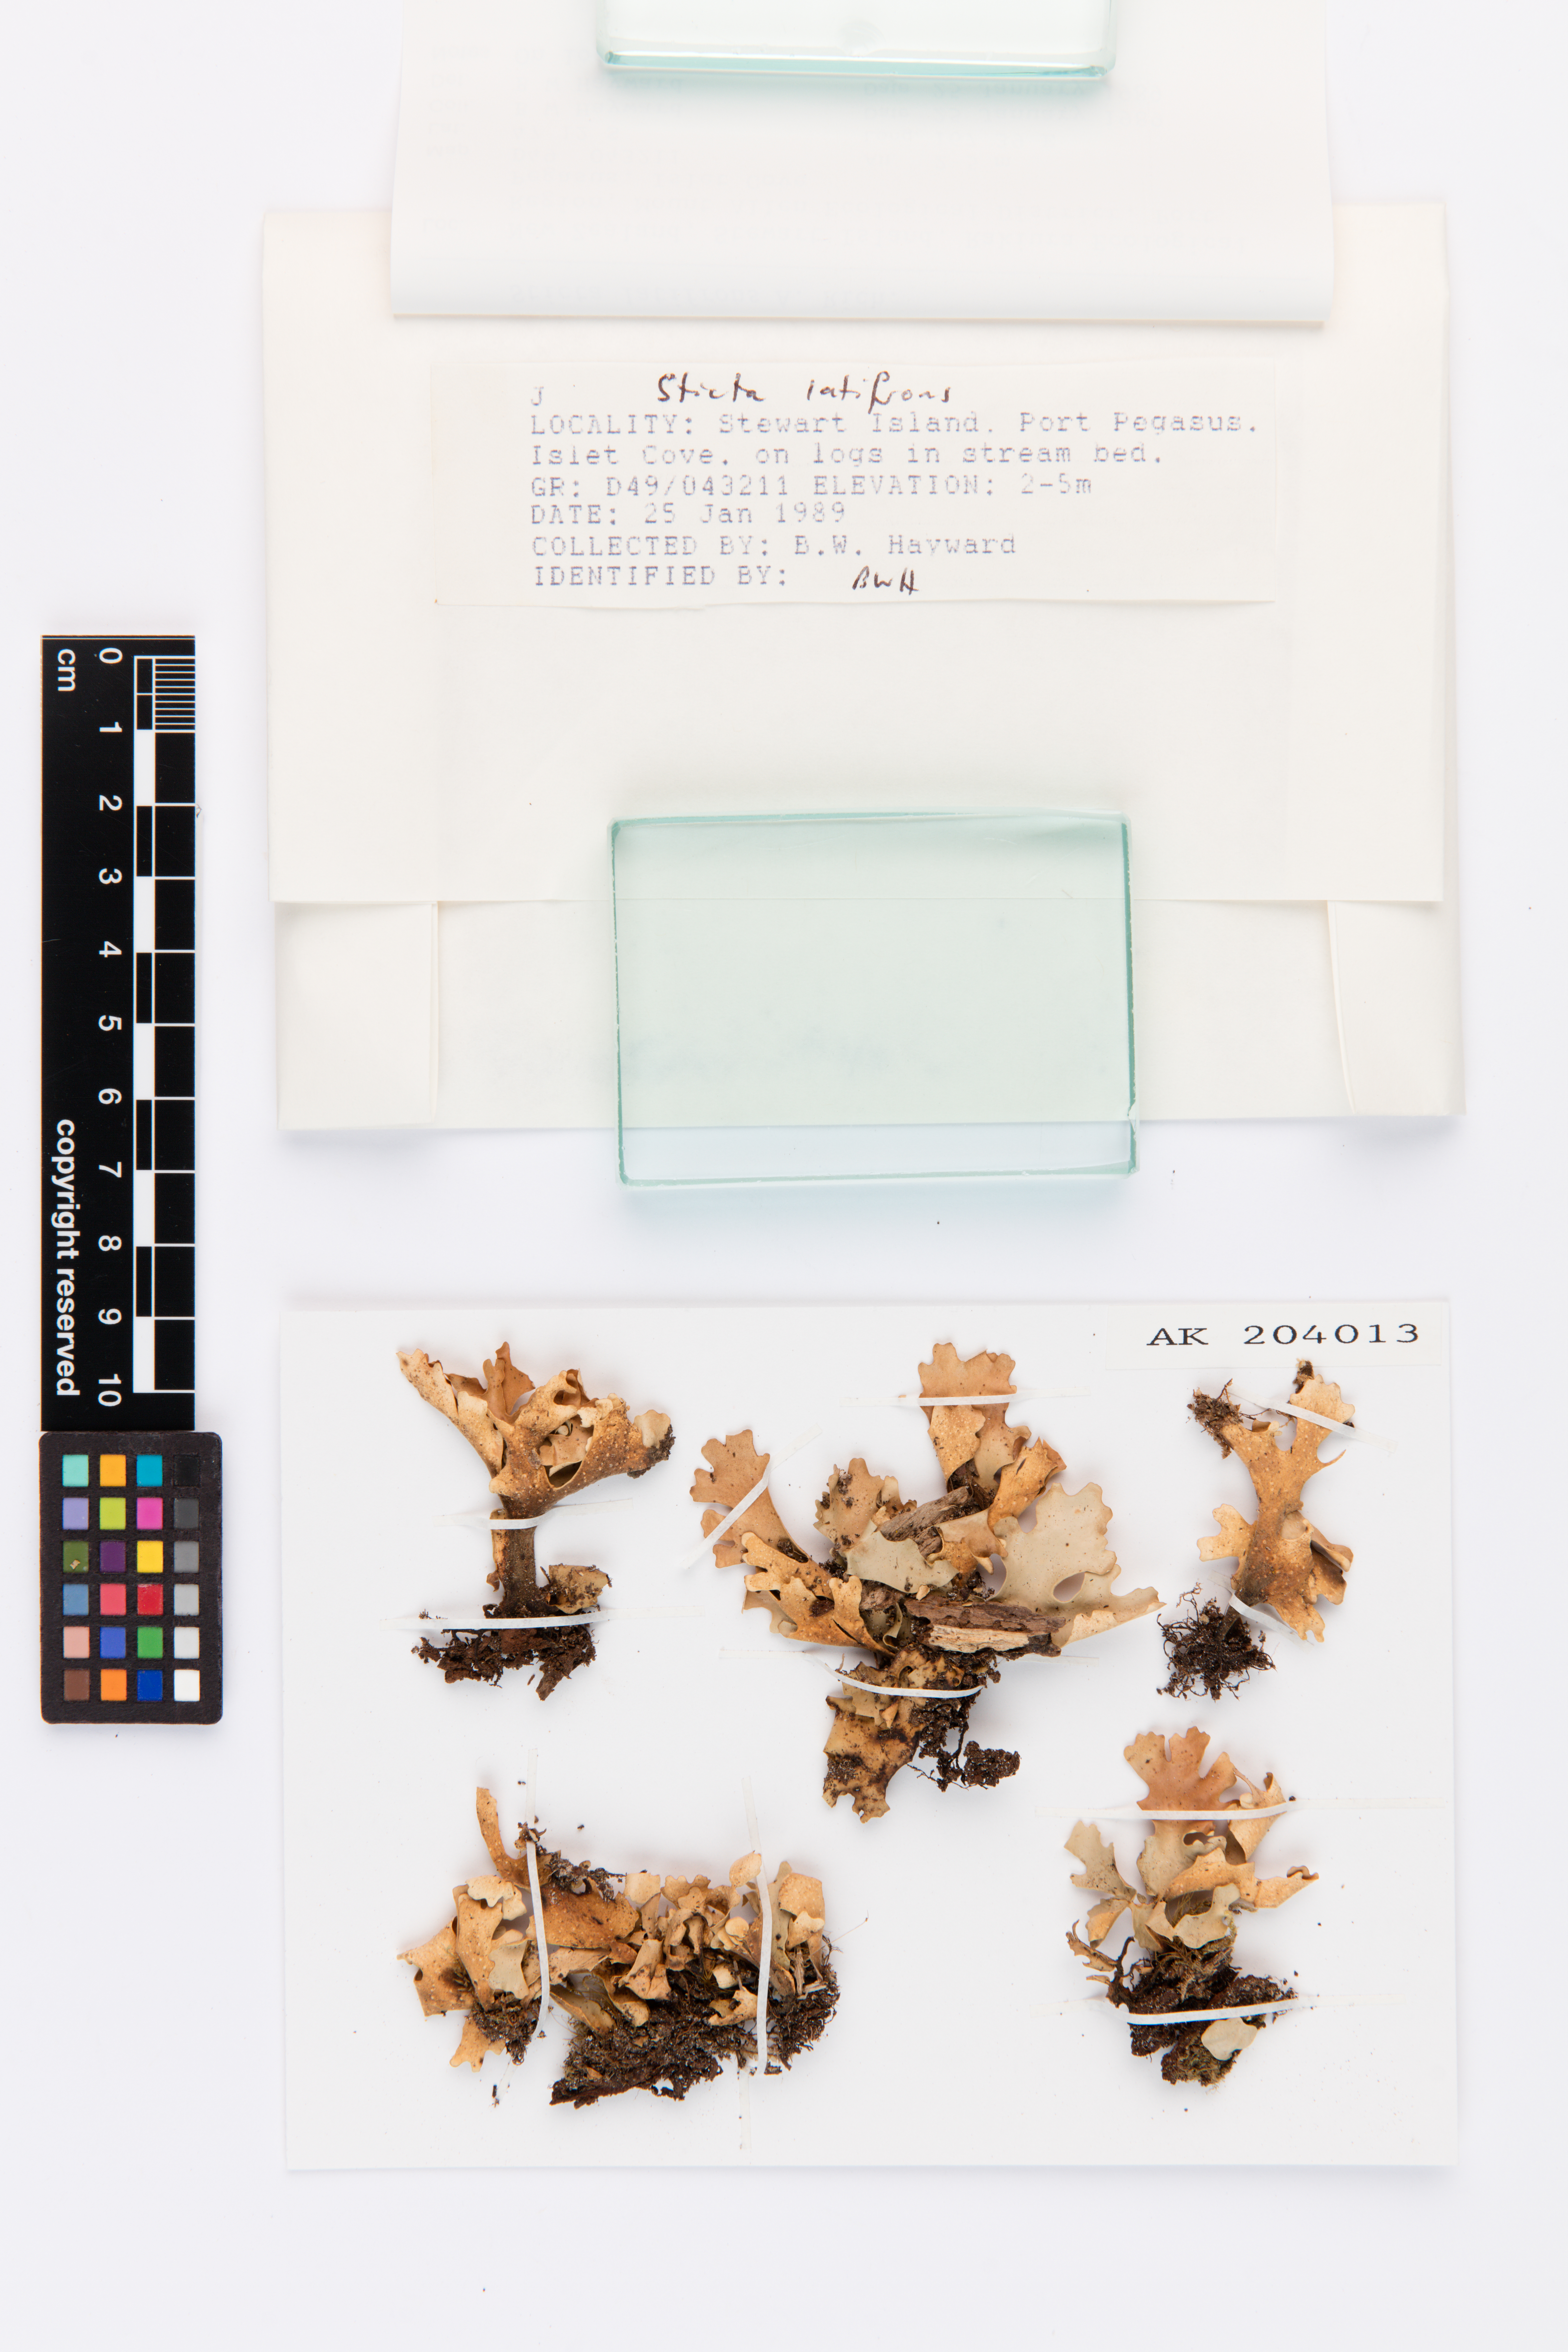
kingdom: Fungi
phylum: Ascomycota
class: Lecanoromycetes
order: Peltigerales
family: Lobariaceae
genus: Sticta
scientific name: Sticta latifrons
